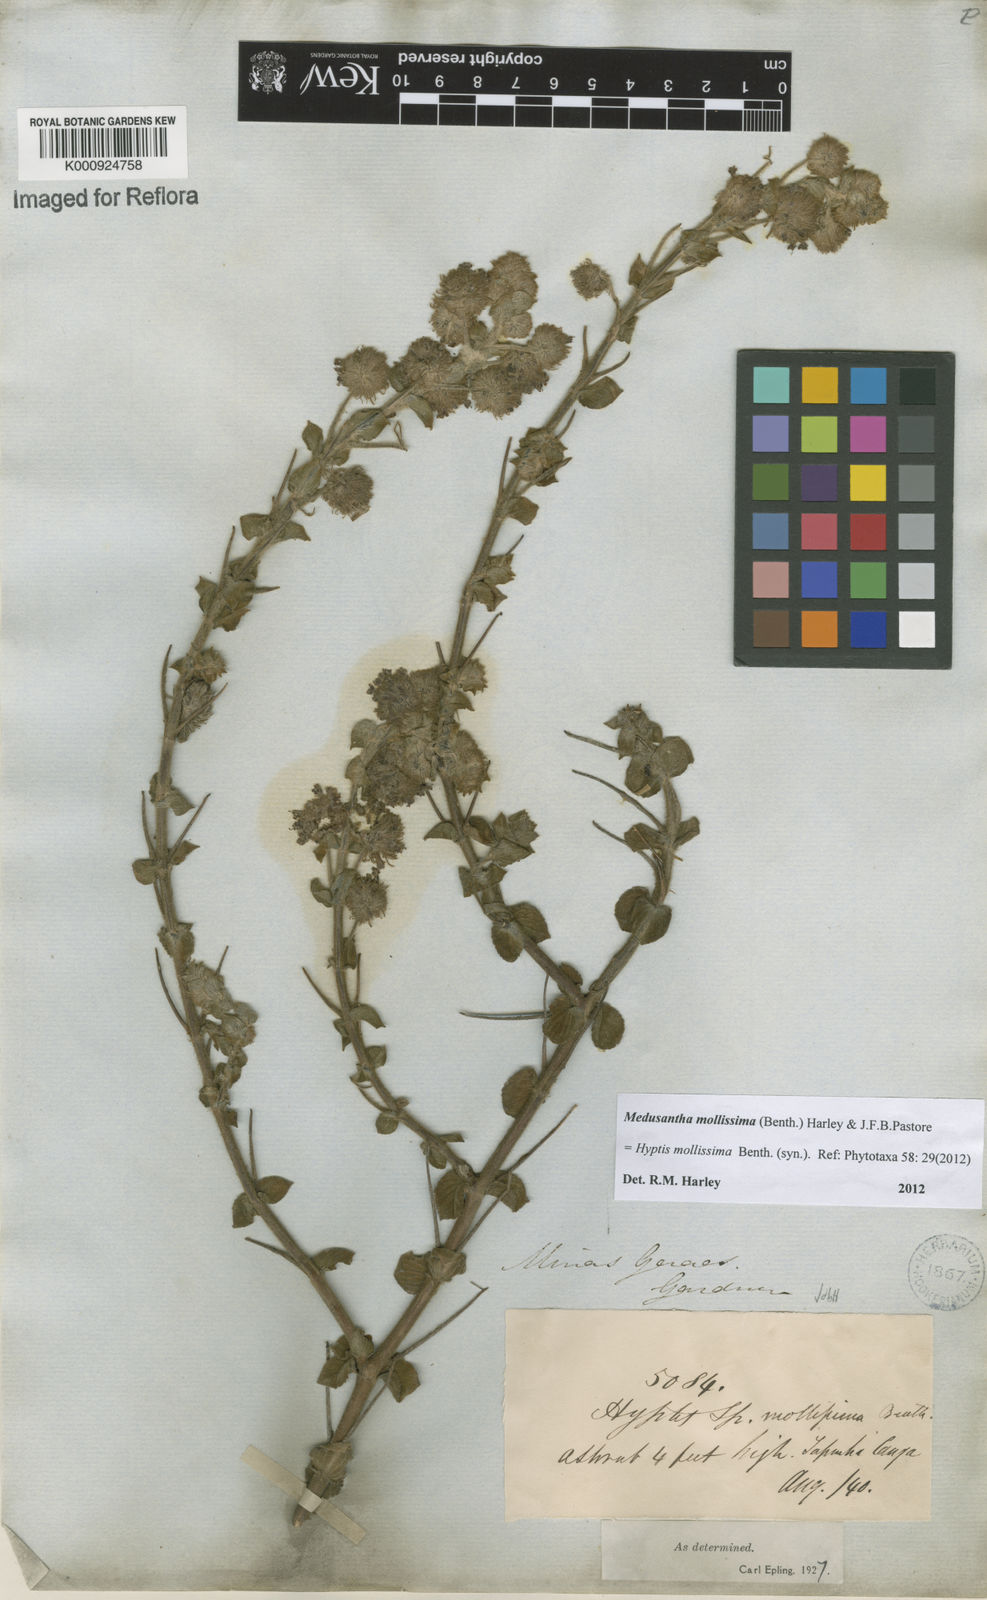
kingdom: Plantae
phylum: Tracheophyta
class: Magnoliopsida
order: Lamiales
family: Lamiaceae
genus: Medusantha
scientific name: Medusantha mollissima
